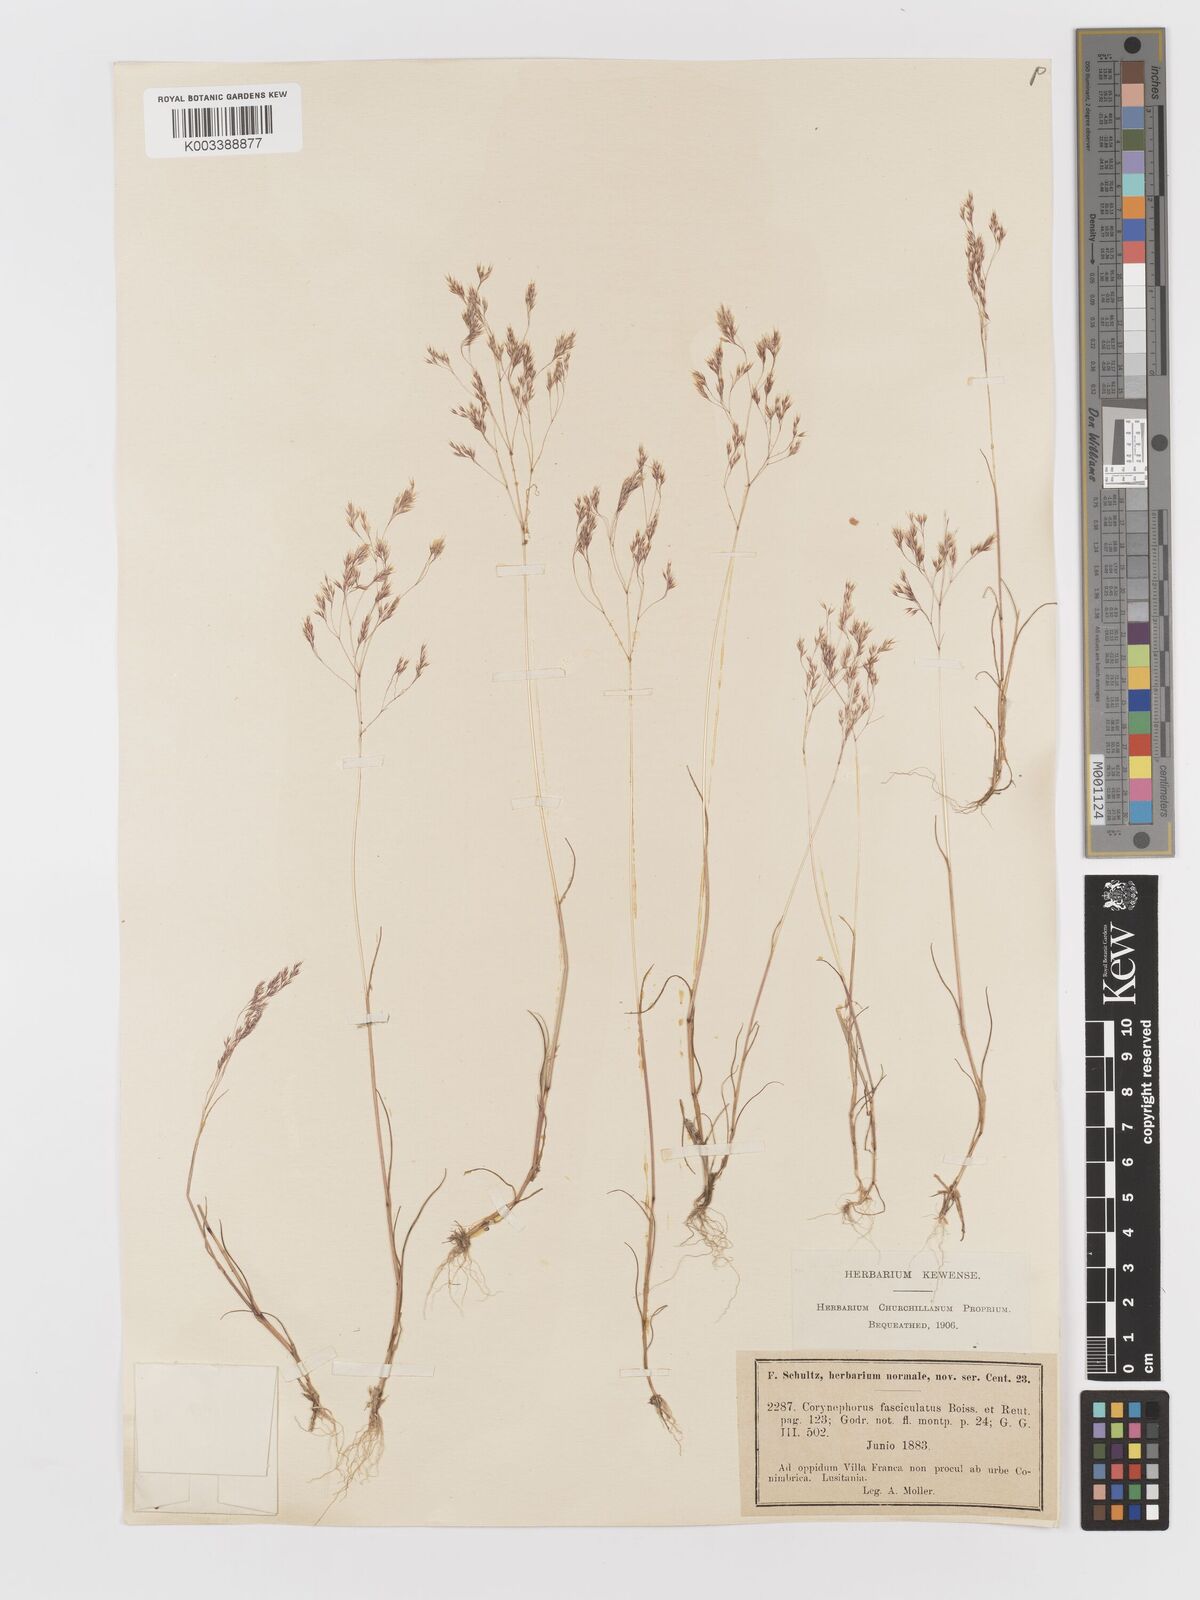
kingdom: Plantae
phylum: Tracheophyta
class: Liliopsida
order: Poales
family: Poaceae
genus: Corynephorus
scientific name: Corynephorus fasciculatus
